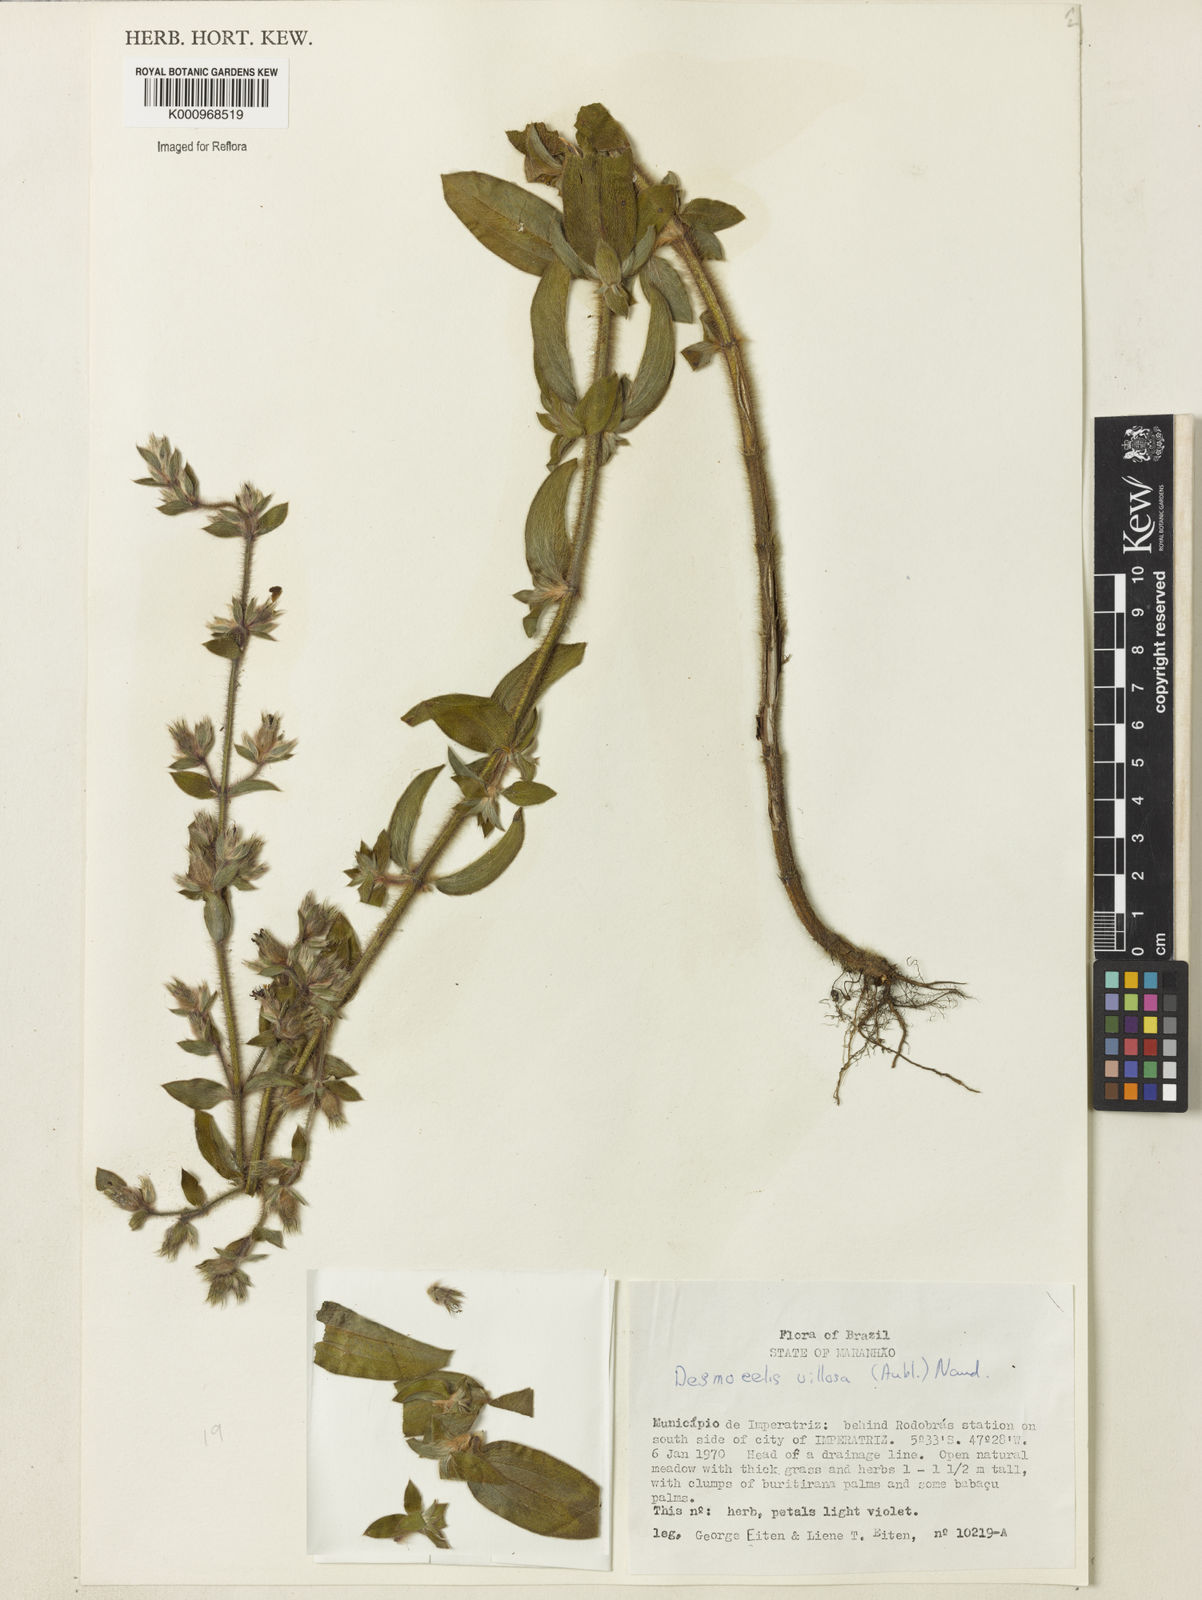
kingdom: Plantae
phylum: Tracheophyta
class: Magnoliopsida
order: Myrtales
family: Melastomataceae
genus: Desmoscelis
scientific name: Desmoscelis villosa
